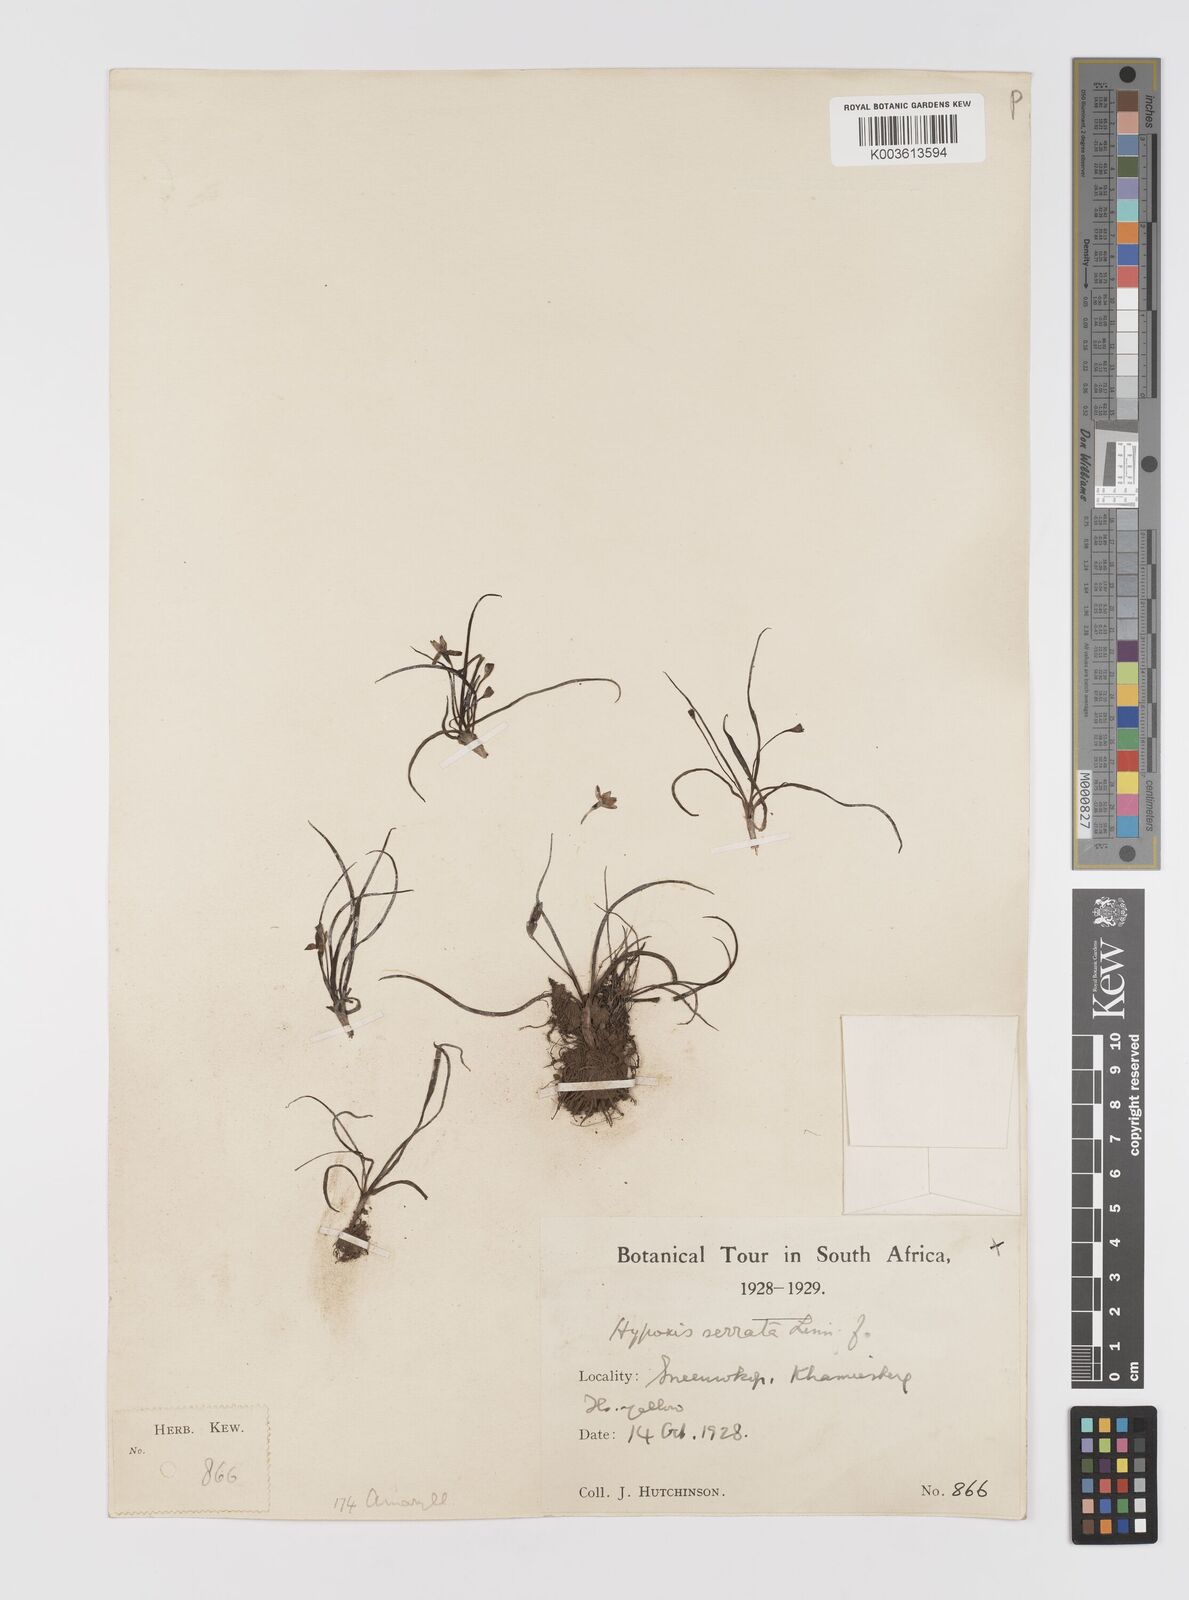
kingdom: Plantae
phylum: Tracheophyta
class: Liliopsida
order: Asparagales
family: Hypoxidaceae
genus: Pauridia
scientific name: Pauridia serrata
